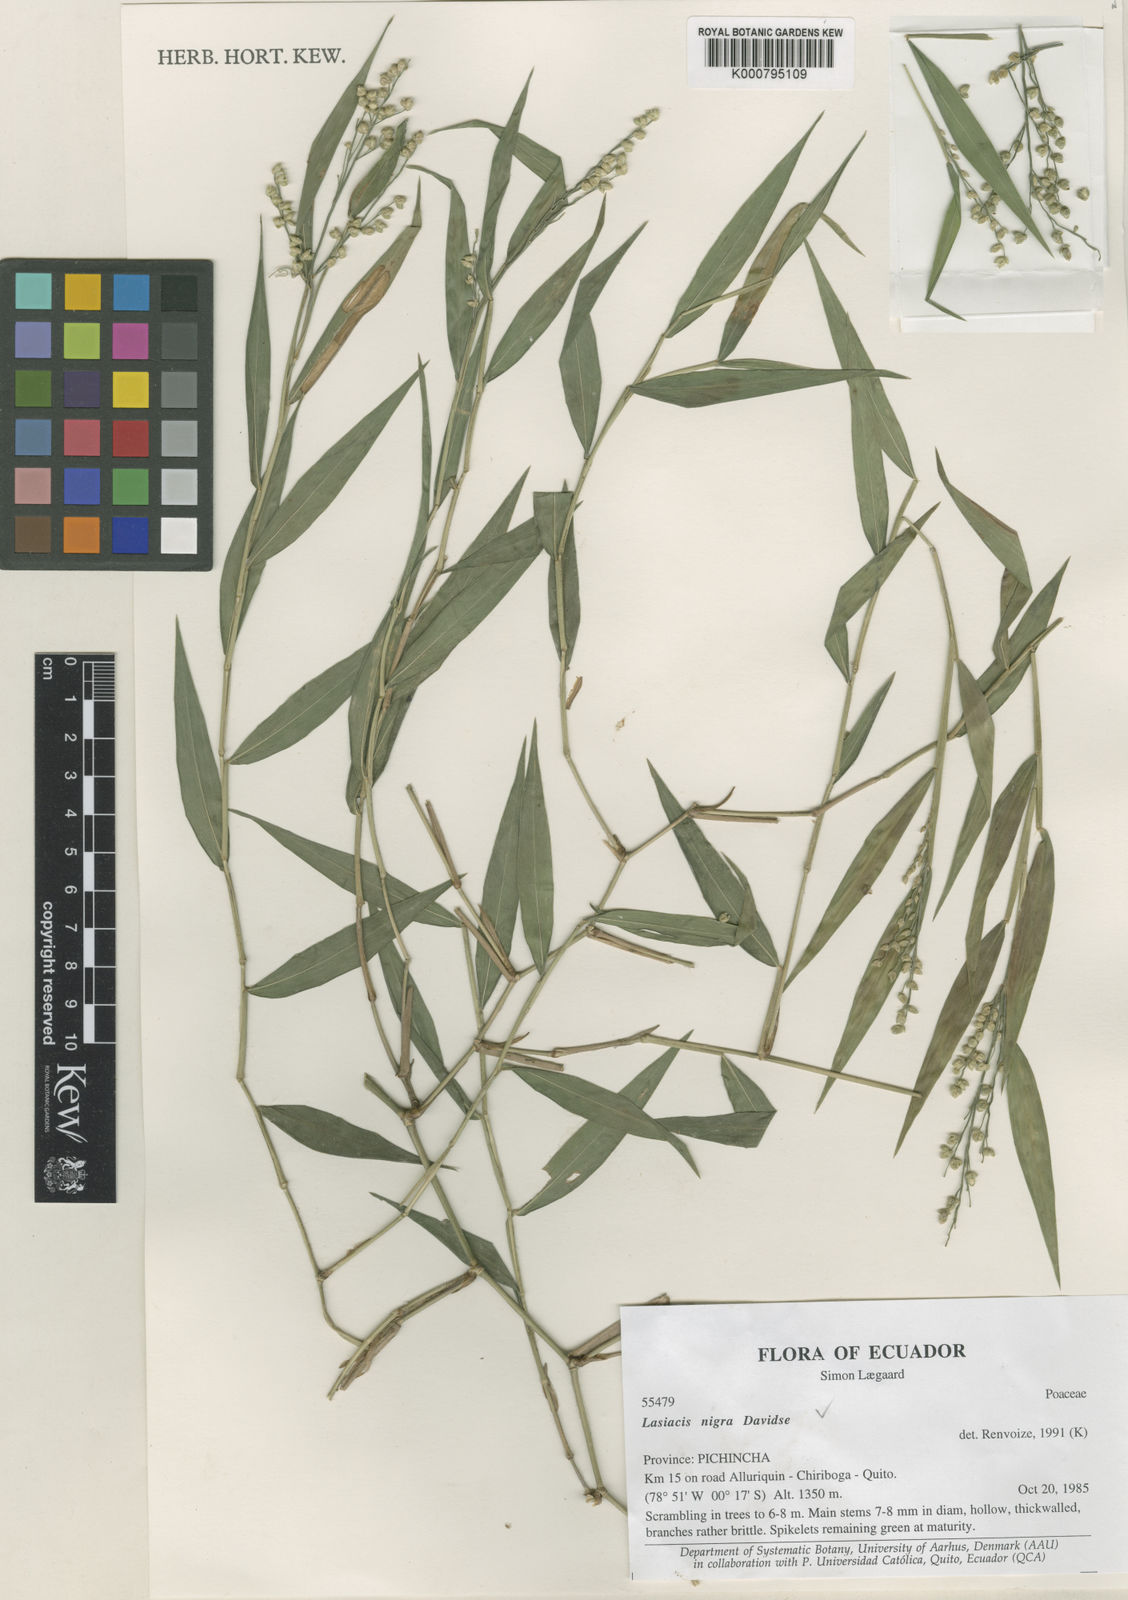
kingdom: Plantae
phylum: Tracheophyta
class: Liliopsida
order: Poales
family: Poaceae
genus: Lasiacis
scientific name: Lasiacis nigra
